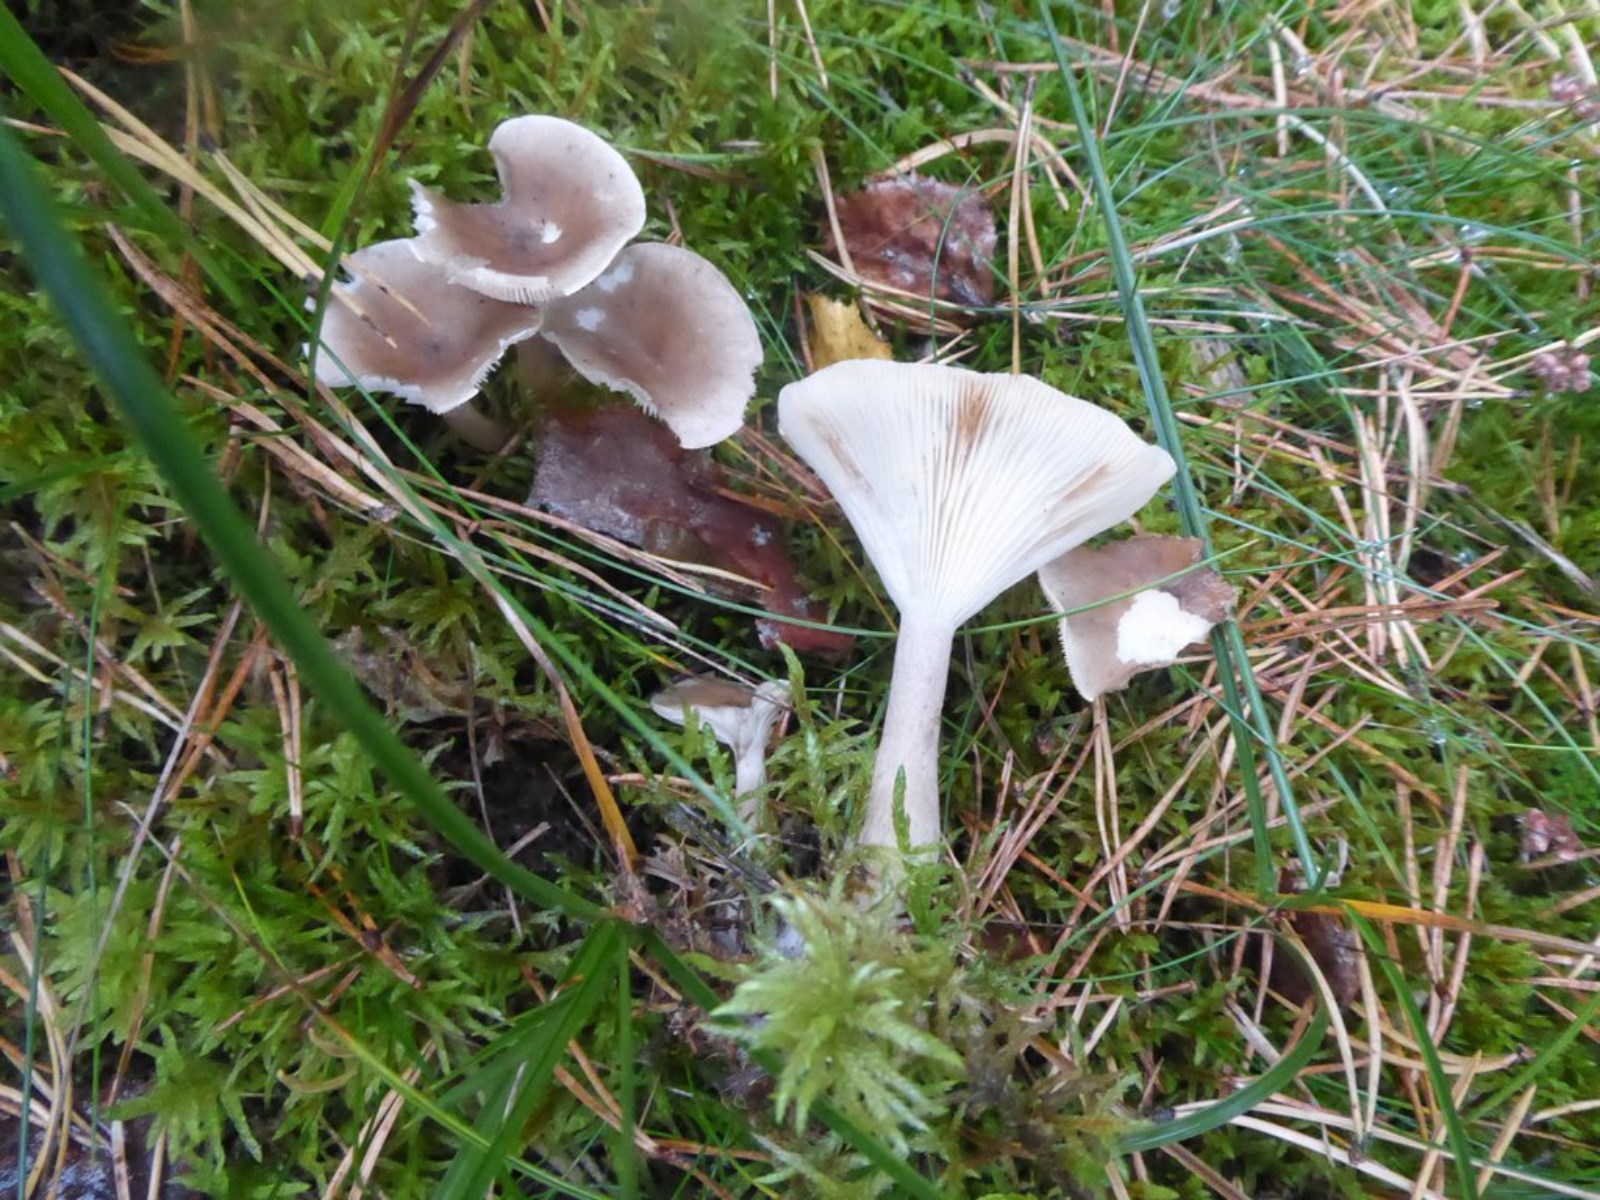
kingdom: Fungi
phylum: Basidiomycota
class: Agaricomycetes
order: Agaricales
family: Hygrophoraceae
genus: Ampulloclitocybe
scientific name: Ampulloclitocybe clavipes
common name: køllefod
